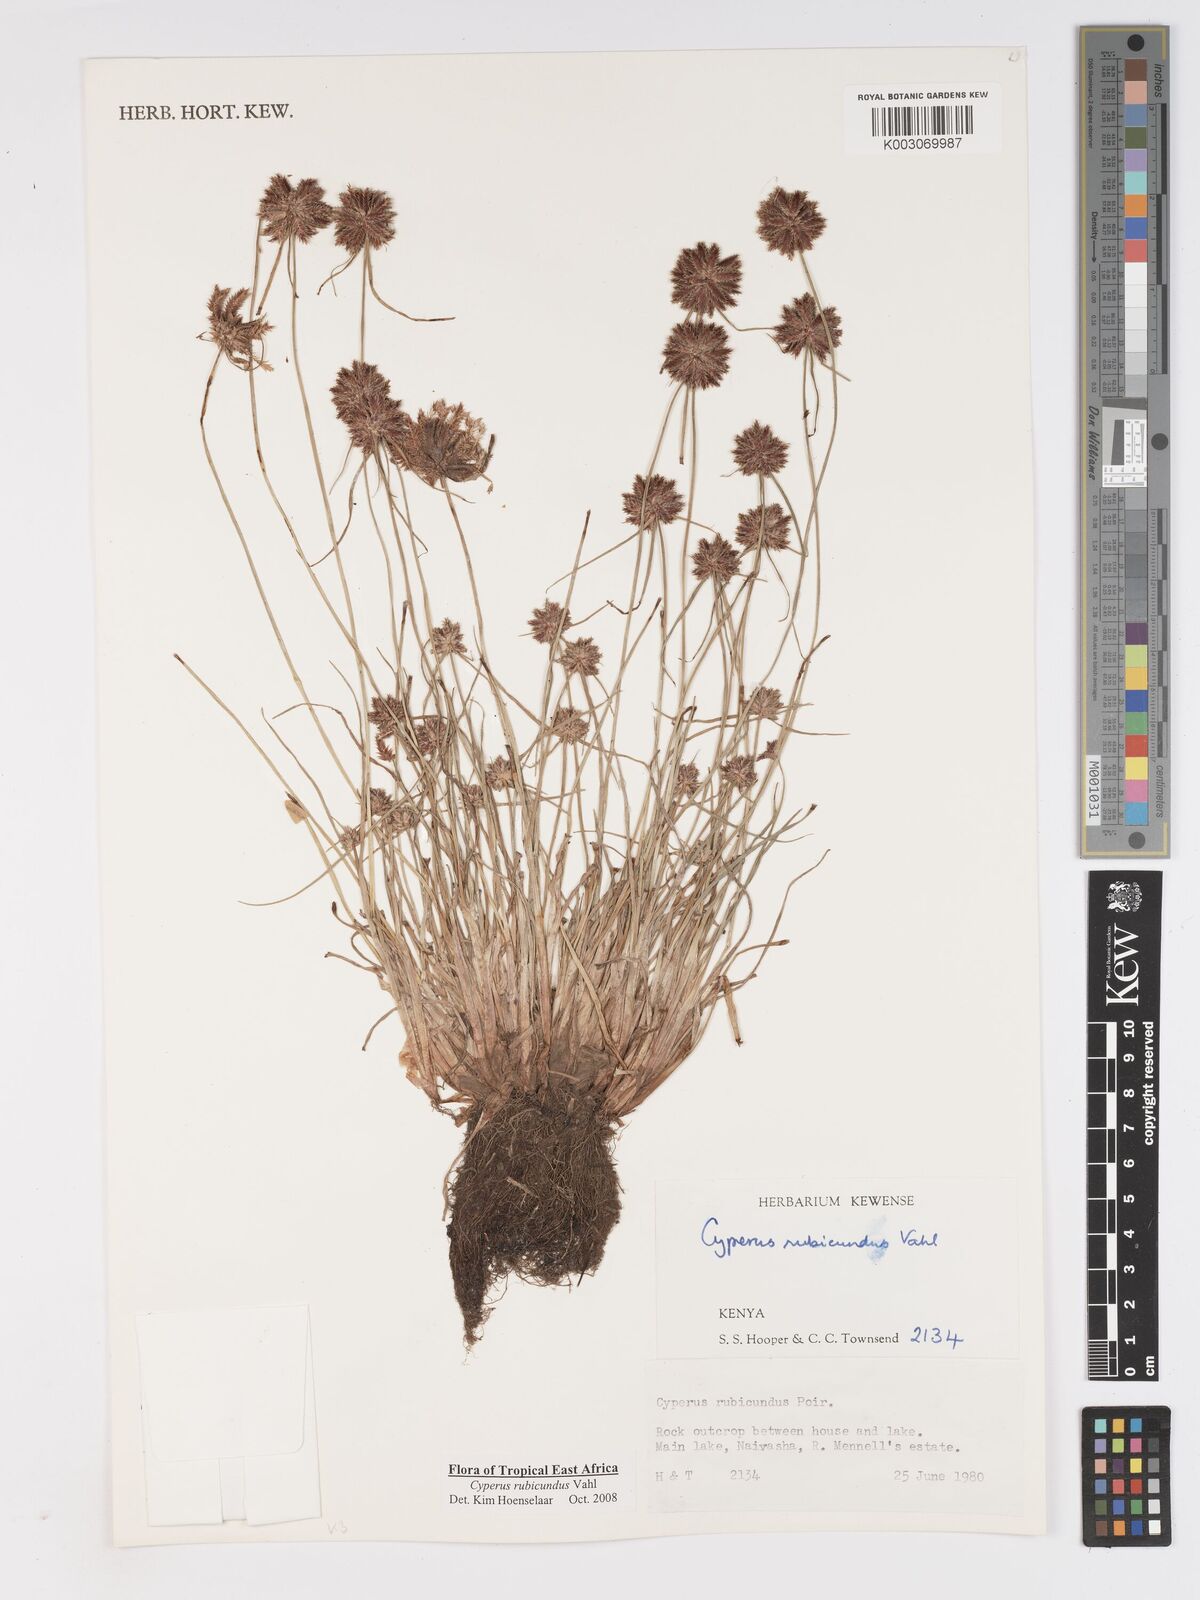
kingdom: Plantae
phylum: Tracheophyta
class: Liliopsida
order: Poales
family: Cyperaceae
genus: Cyperus
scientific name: Cyperus rubicundus
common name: Coco-grass
